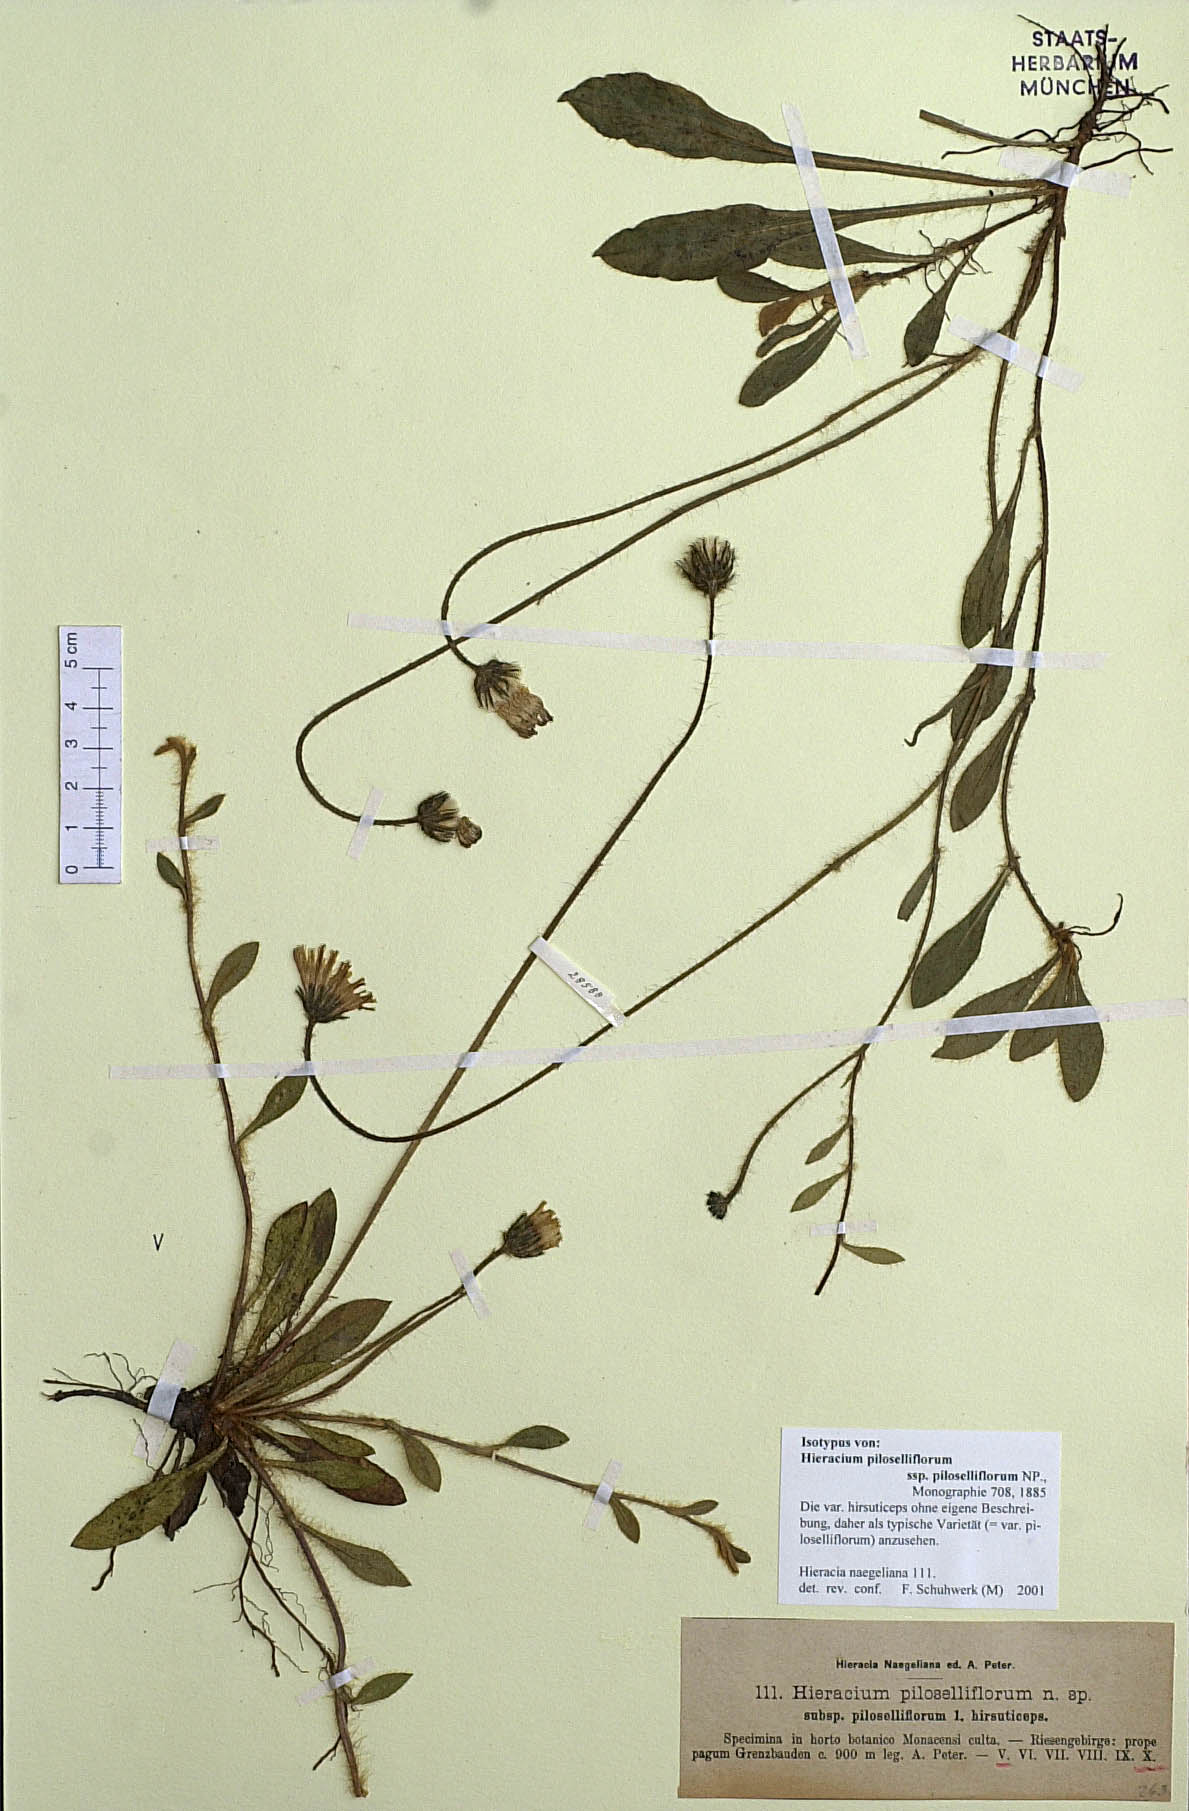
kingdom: Plantae
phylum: Tracheophyta
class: Magnoliopsida
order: Asterales
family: Asteraceae
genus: Pilosella
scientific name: Pilosella piloselliflora
